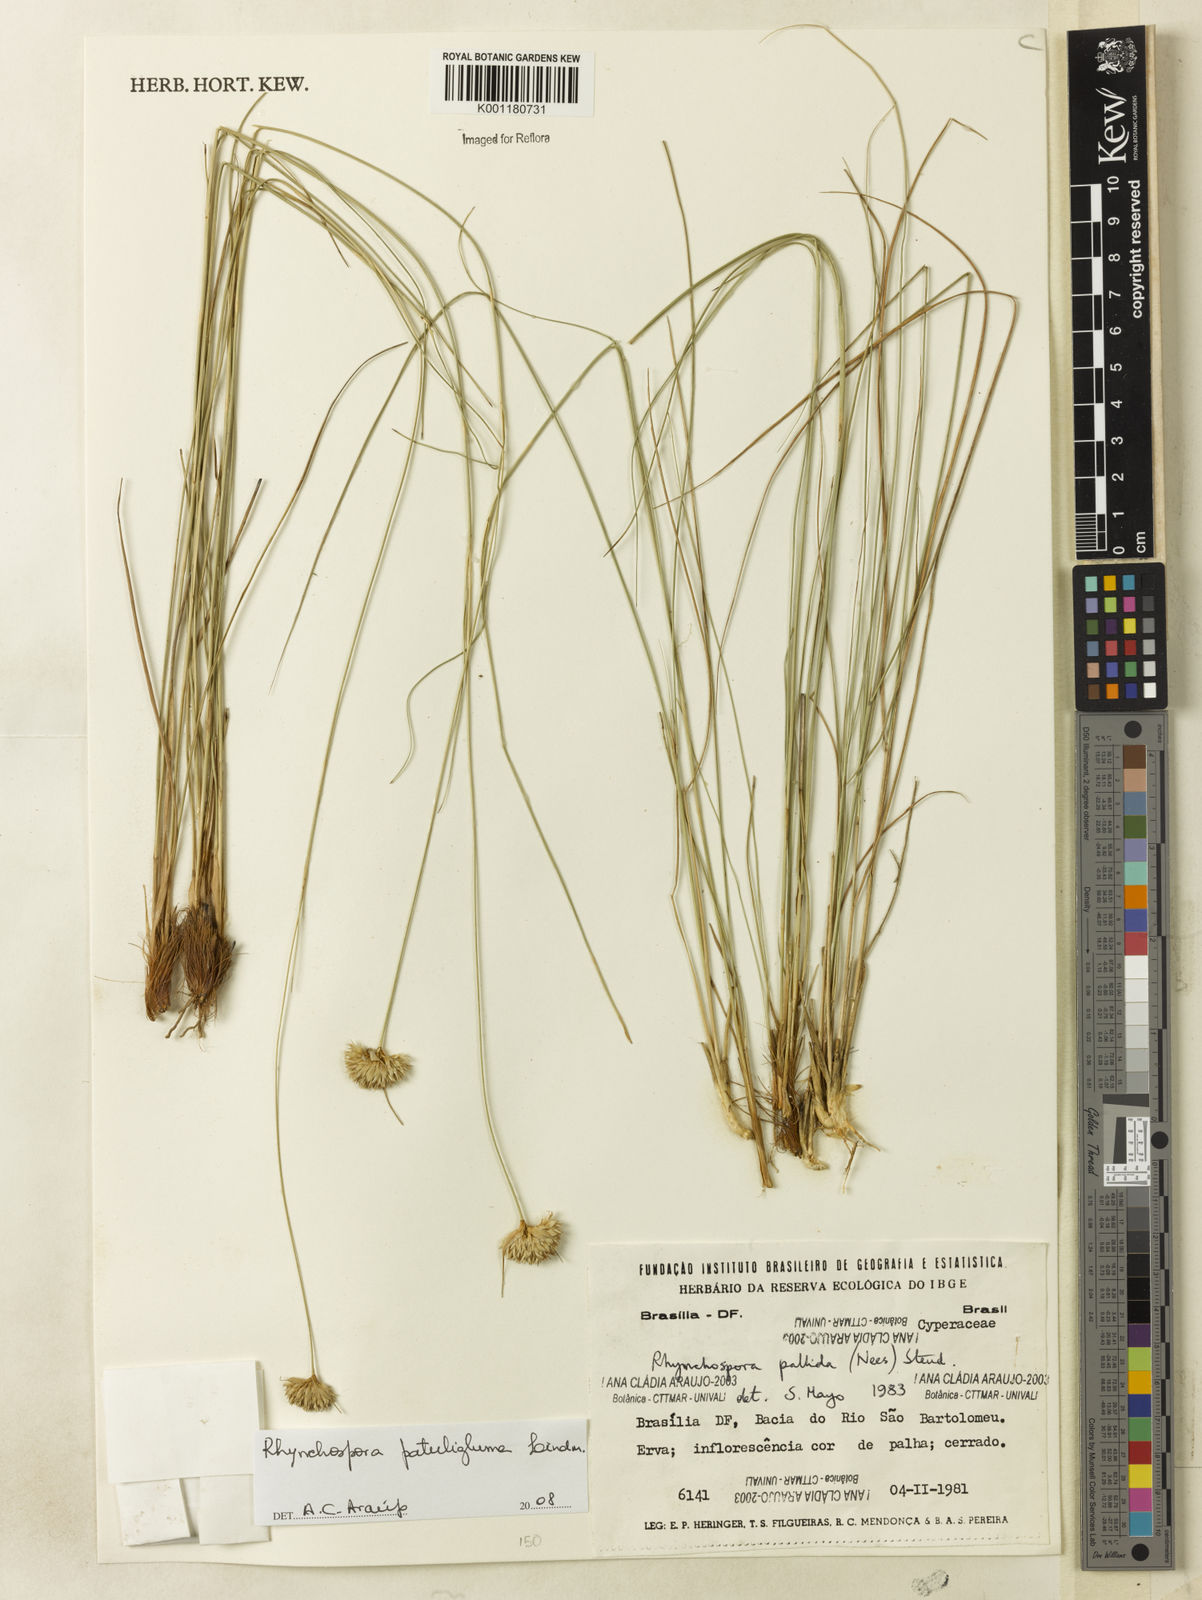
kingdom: Plantae
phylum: Tracheophyta
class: Liliopsida
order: Poales
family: Cyperaceae
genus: Rhynchospora
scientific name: Rhynchospora patuligluma
